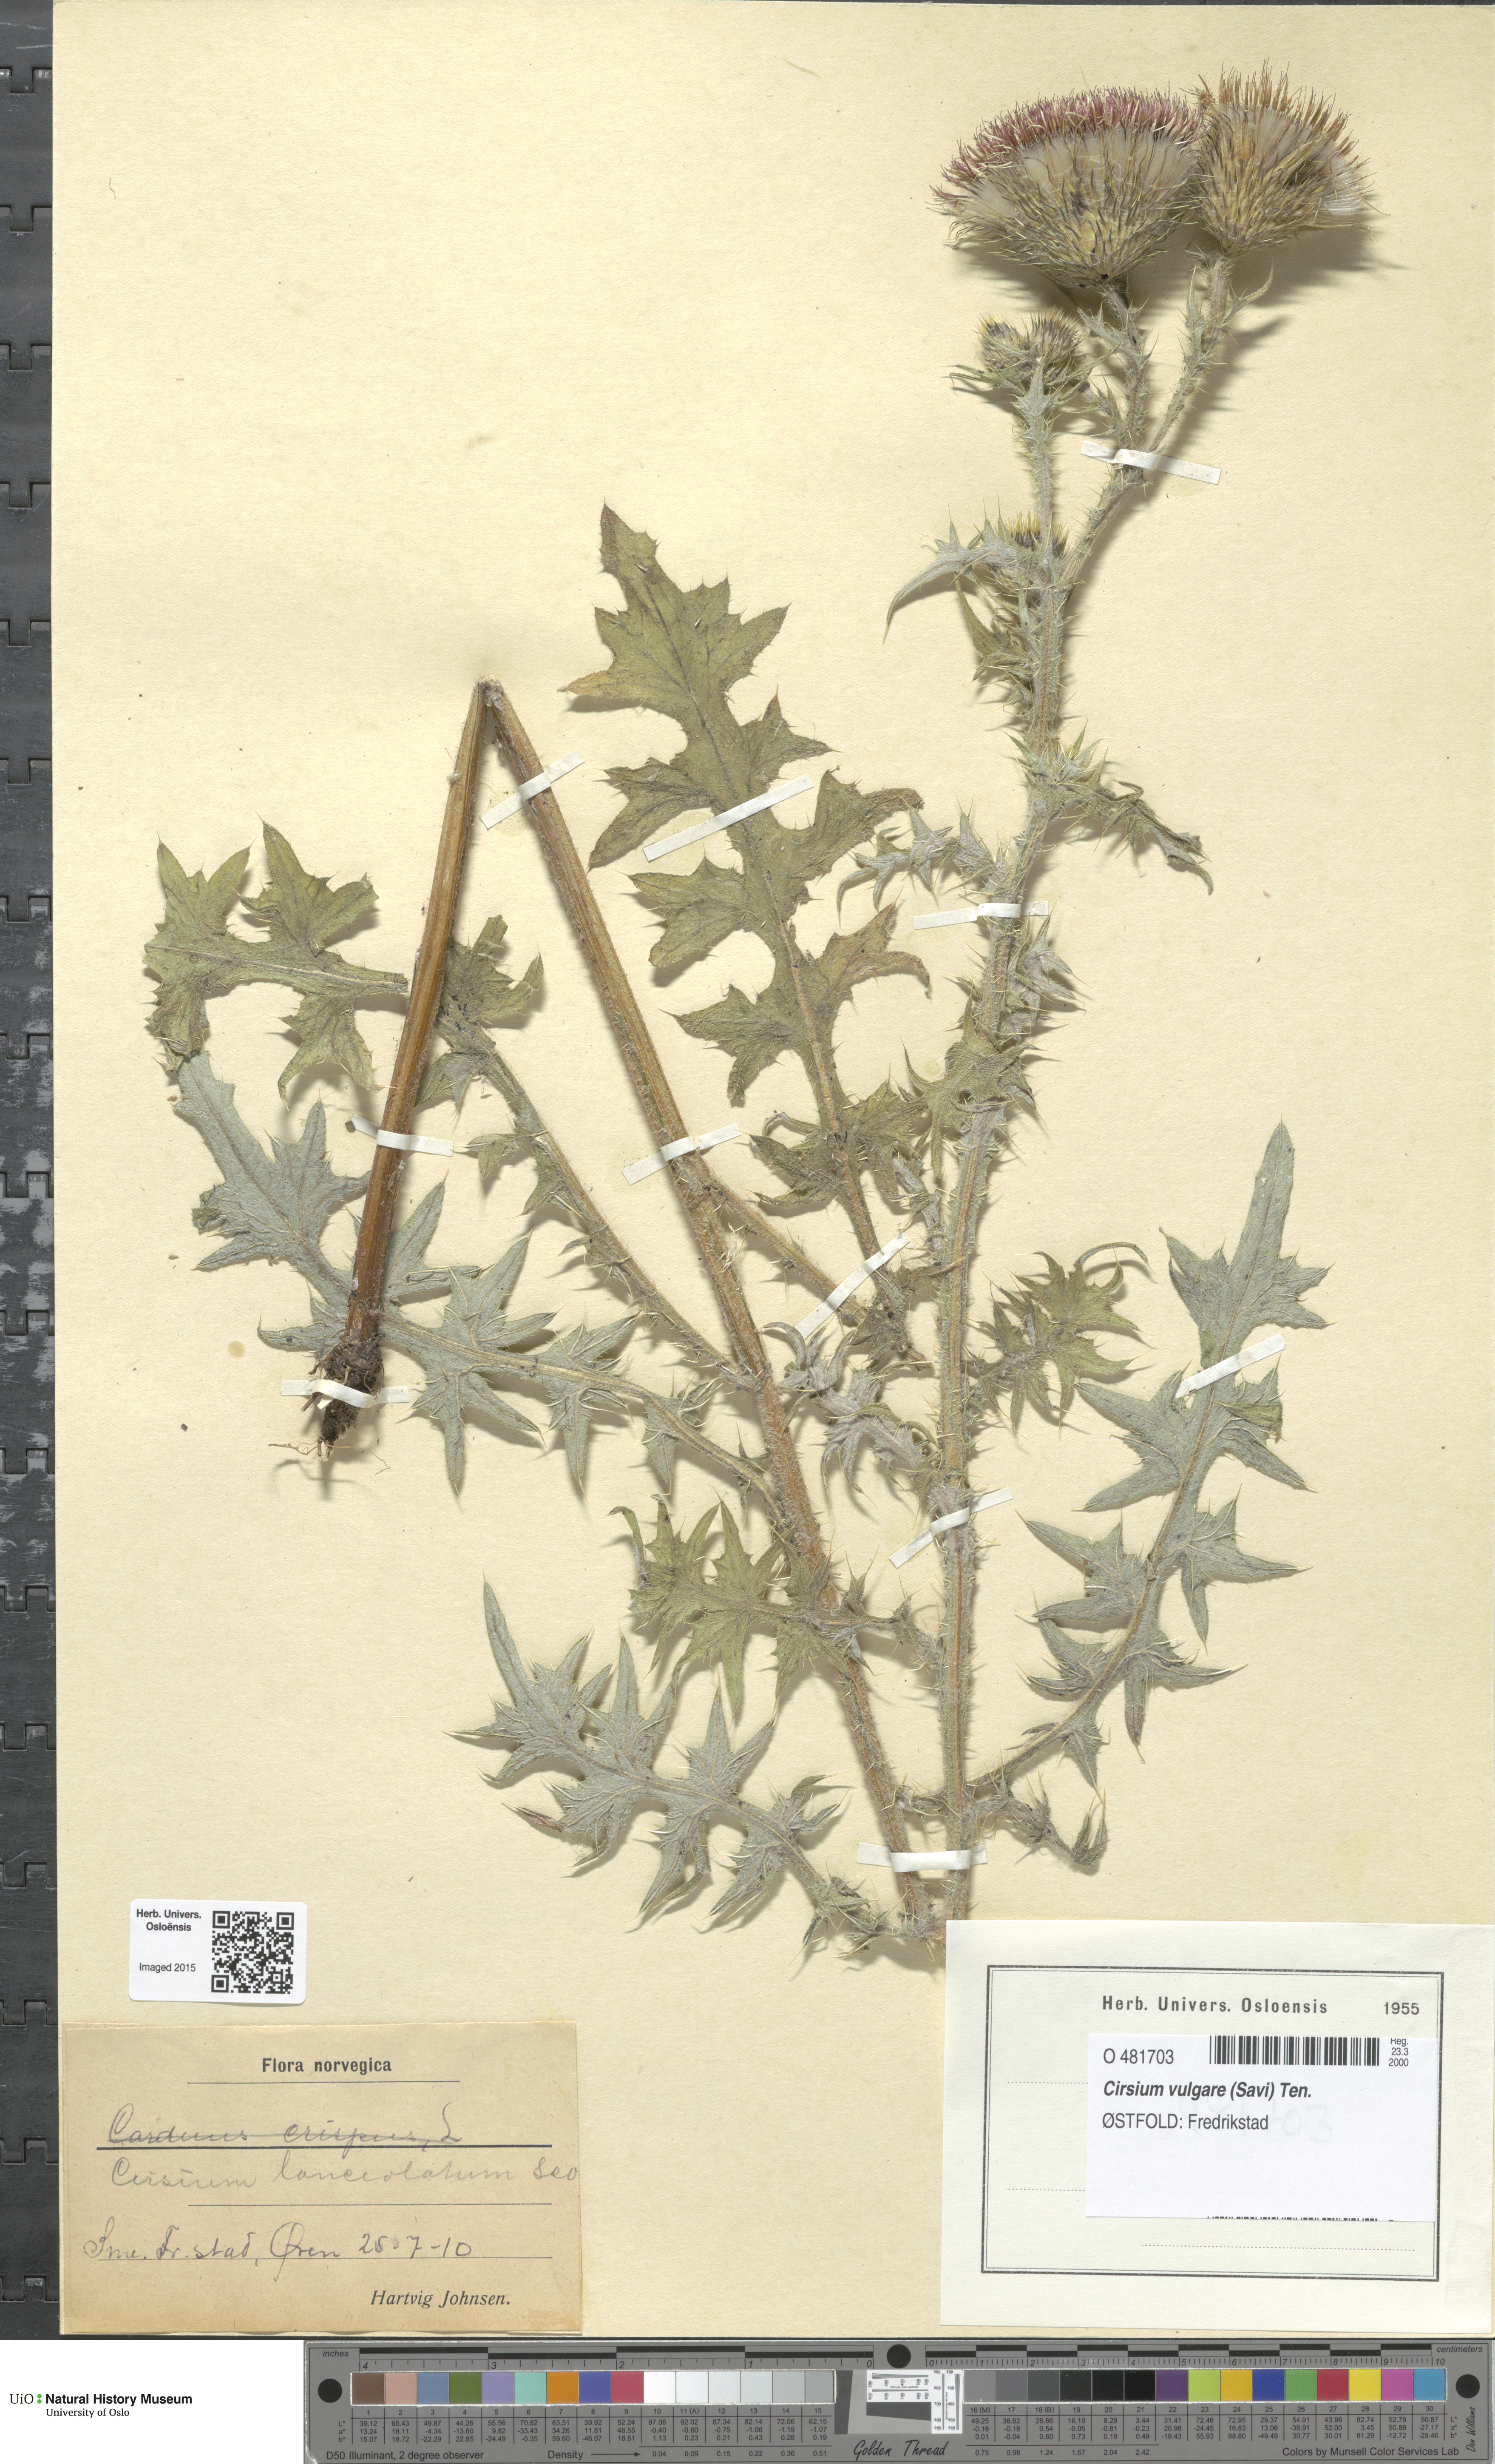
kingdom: Plantae
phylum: Tracheophyta
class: Magnoliopsida
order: Asterales
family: Asteraceae
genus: Cirsium
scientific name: Cirsium vulgare
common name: Bull thistle
